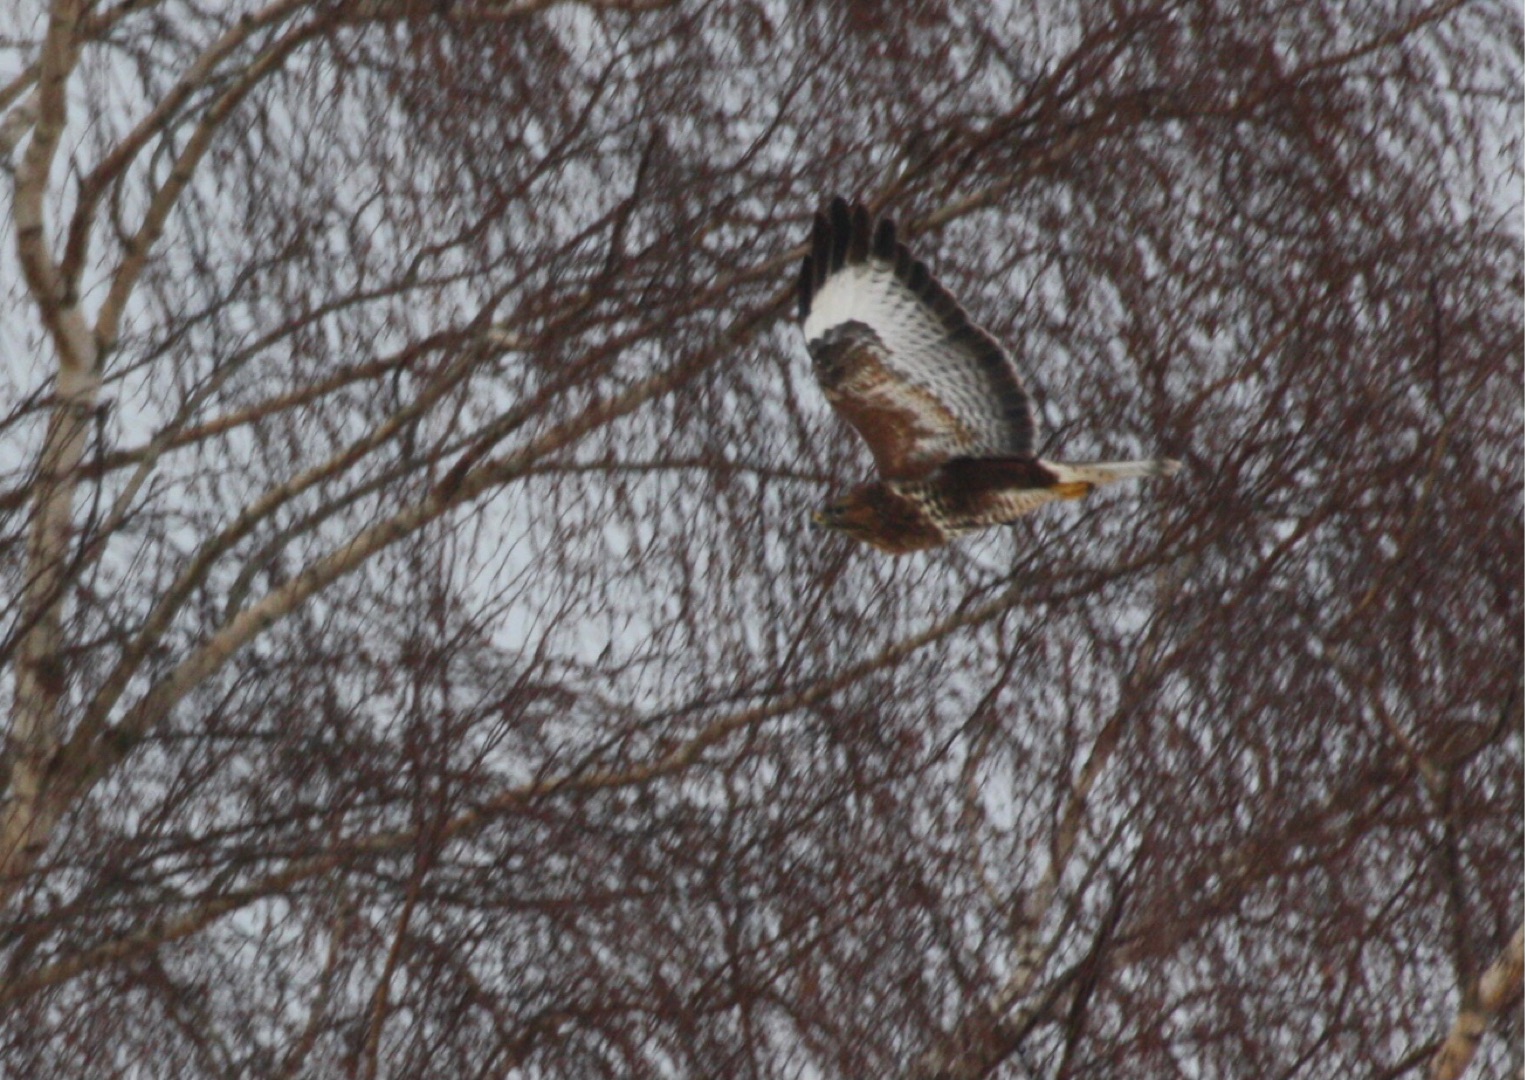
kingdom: Animalia
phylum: Chordata
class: Aves
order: Accipitriformes
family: Accipitridae
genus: Buteo
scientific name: Buteo buteo
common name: Musvåge
